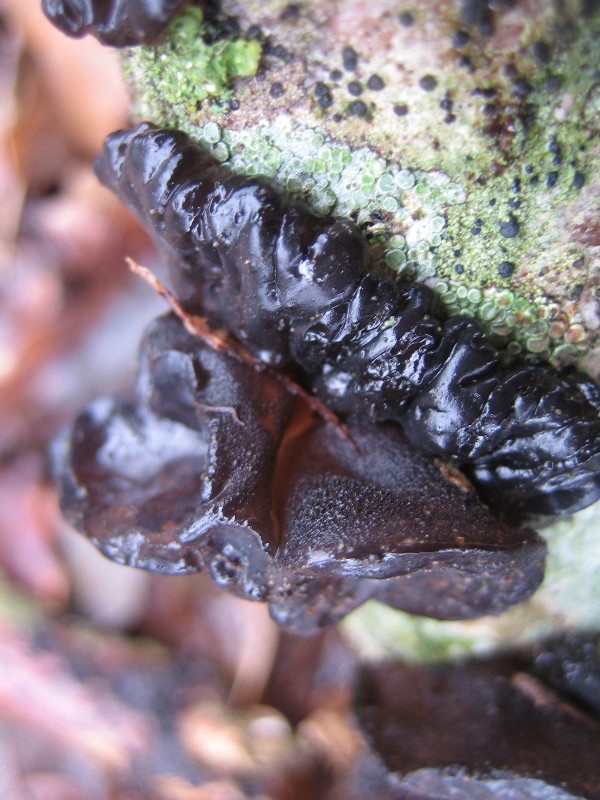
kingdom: Fungi
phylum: Basidiomycota
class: Agaricomycetes
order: Auriculariales
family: Auriculariaceae
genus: Exidia
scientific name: Exidia glandulosa
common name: ege-bævretop
